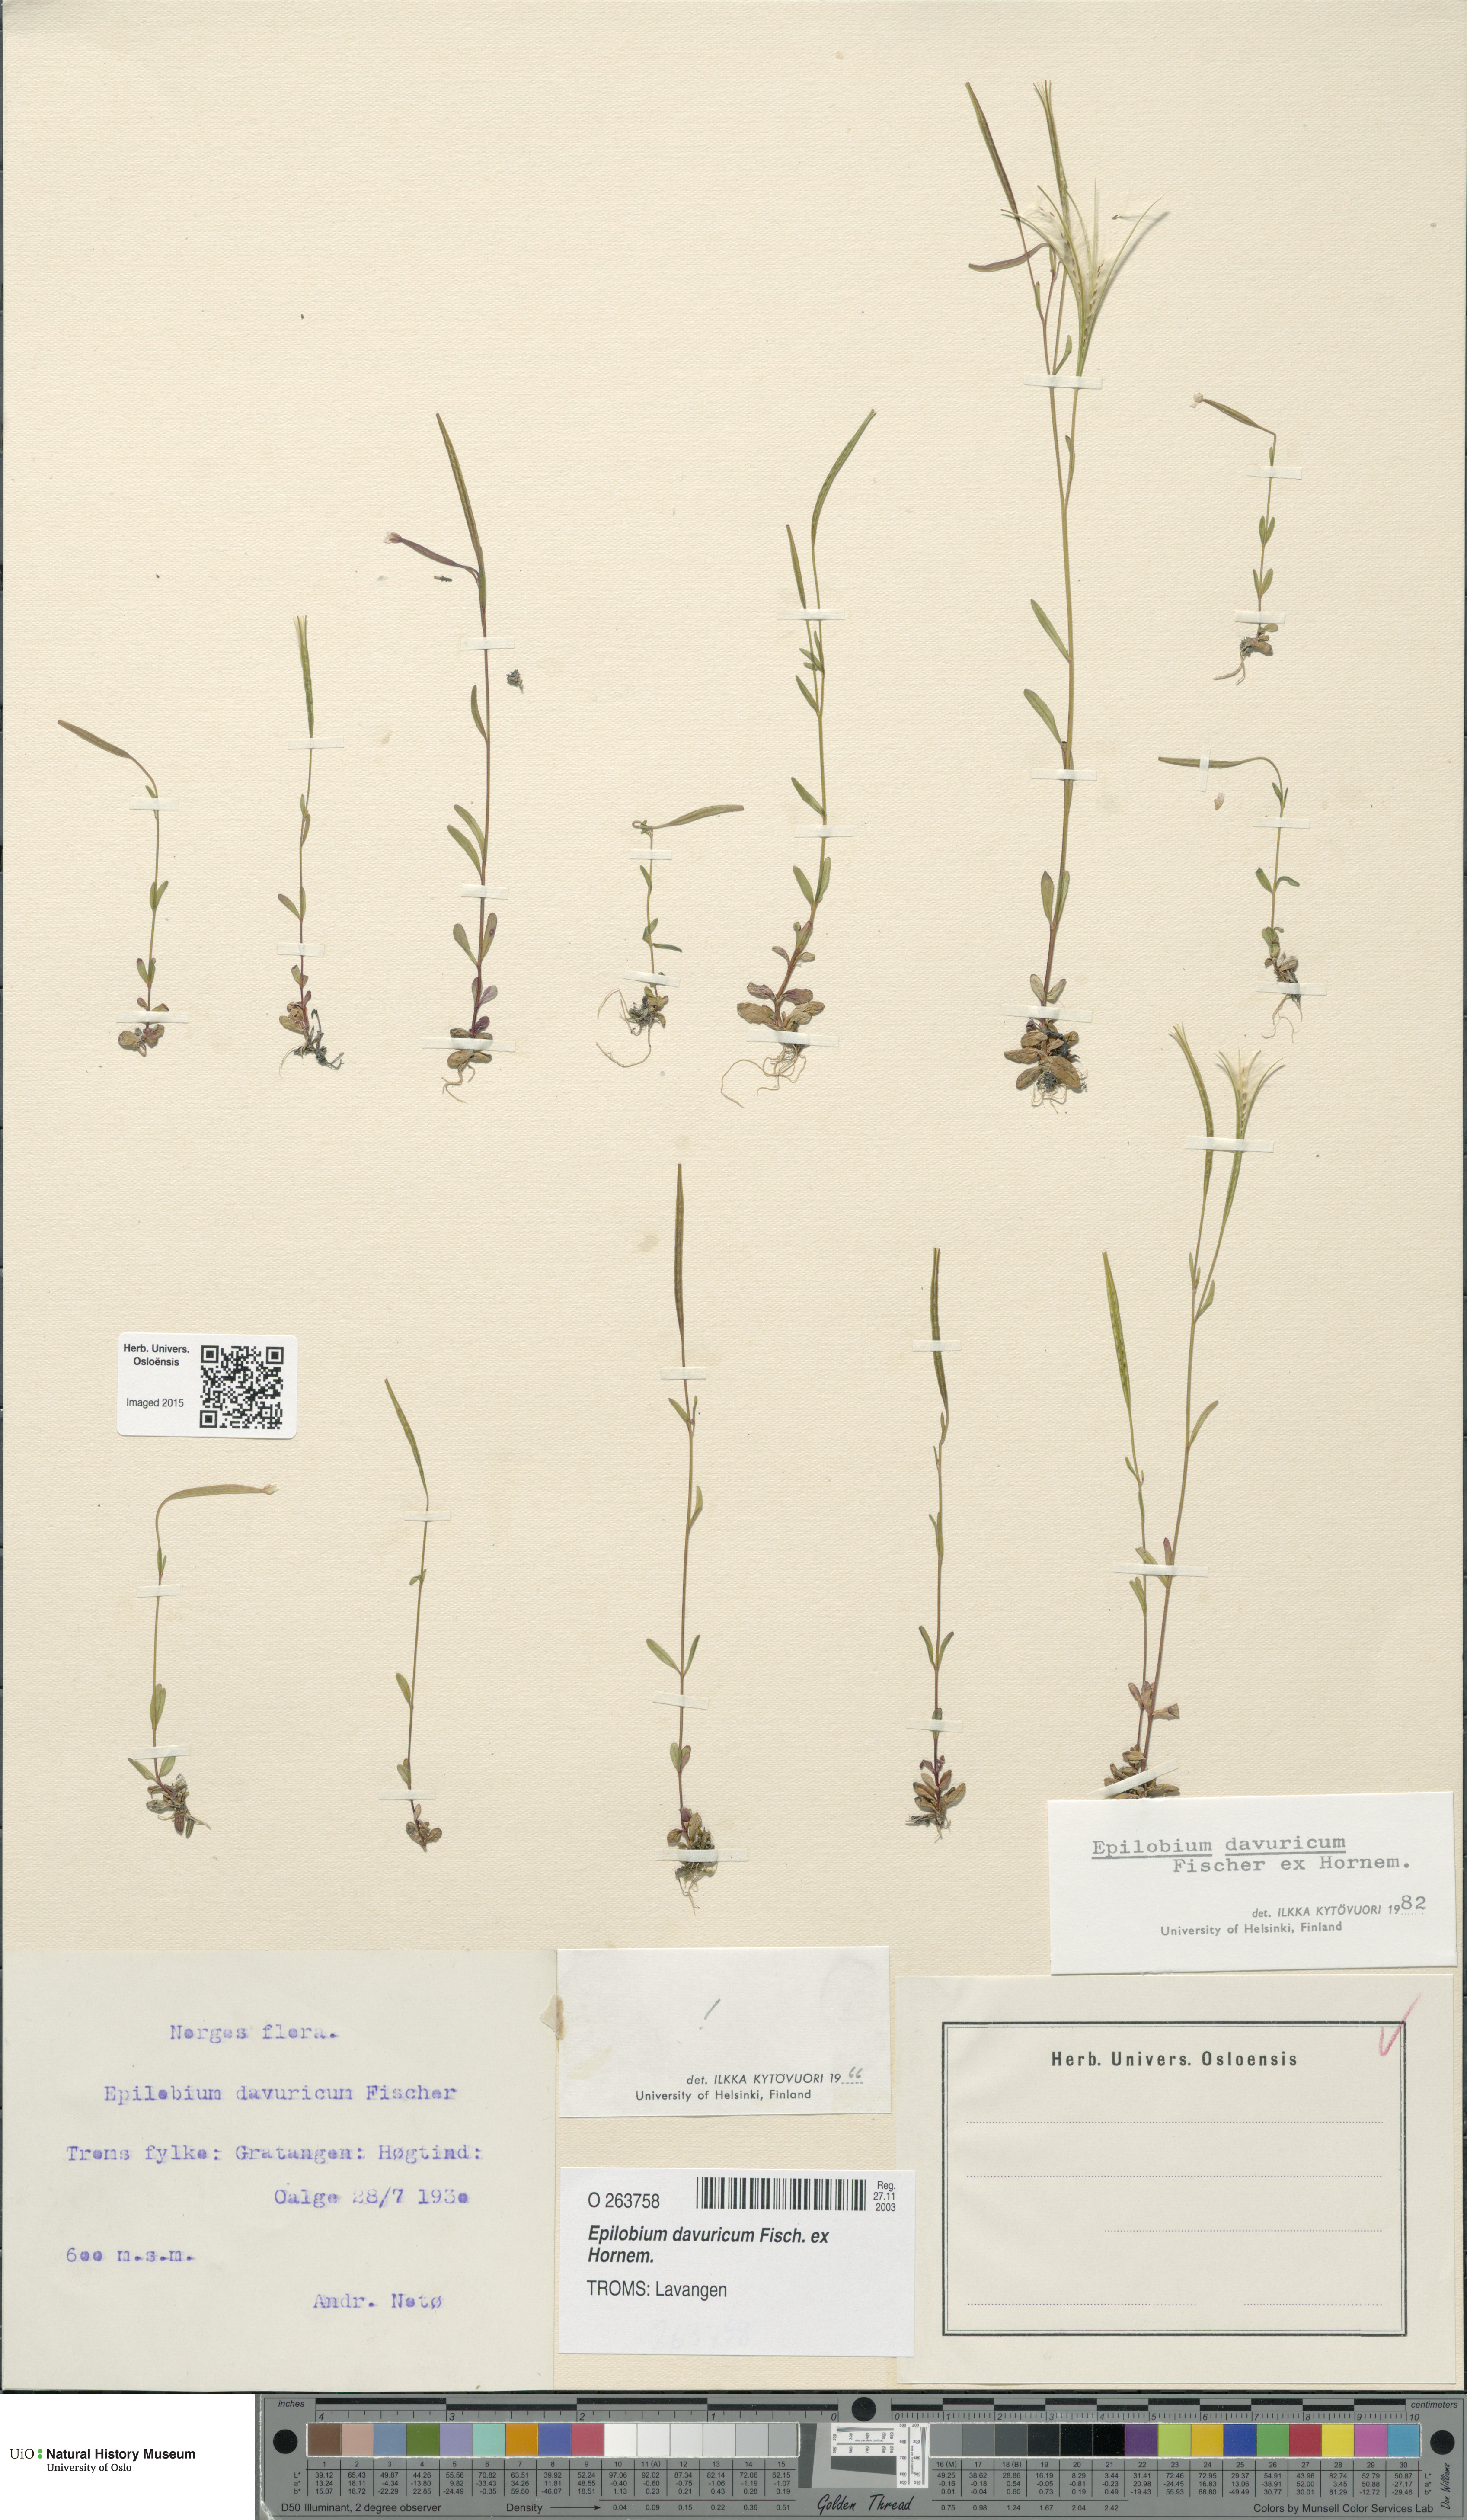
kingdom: Plantae
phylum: Tracheophyta
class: Magnoliopsida
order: Myrtales
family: Onagraceae
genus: Epilobium
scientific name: Epilobium davuricum
